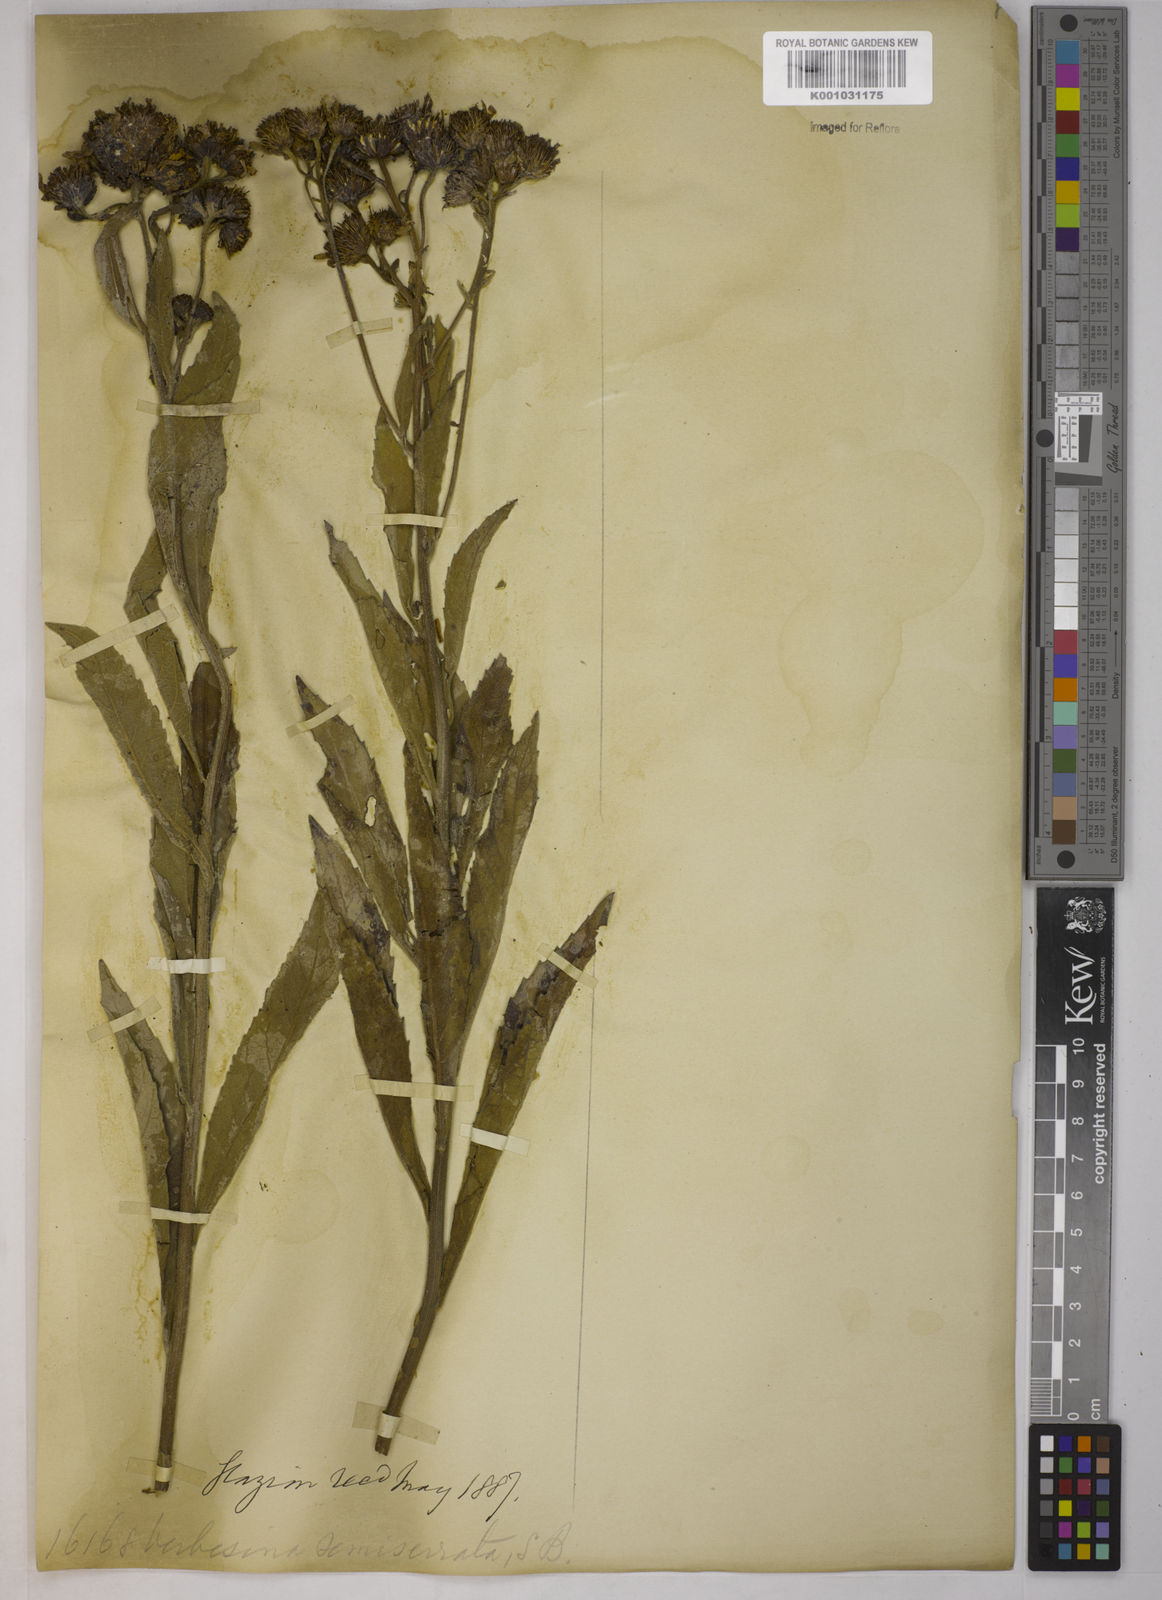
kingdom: Plantae
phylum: Tracheophyta
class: Magnoliopsida
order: Asterales
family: Asteraceae
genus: Verbesina
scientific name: Verbesina sordescens
